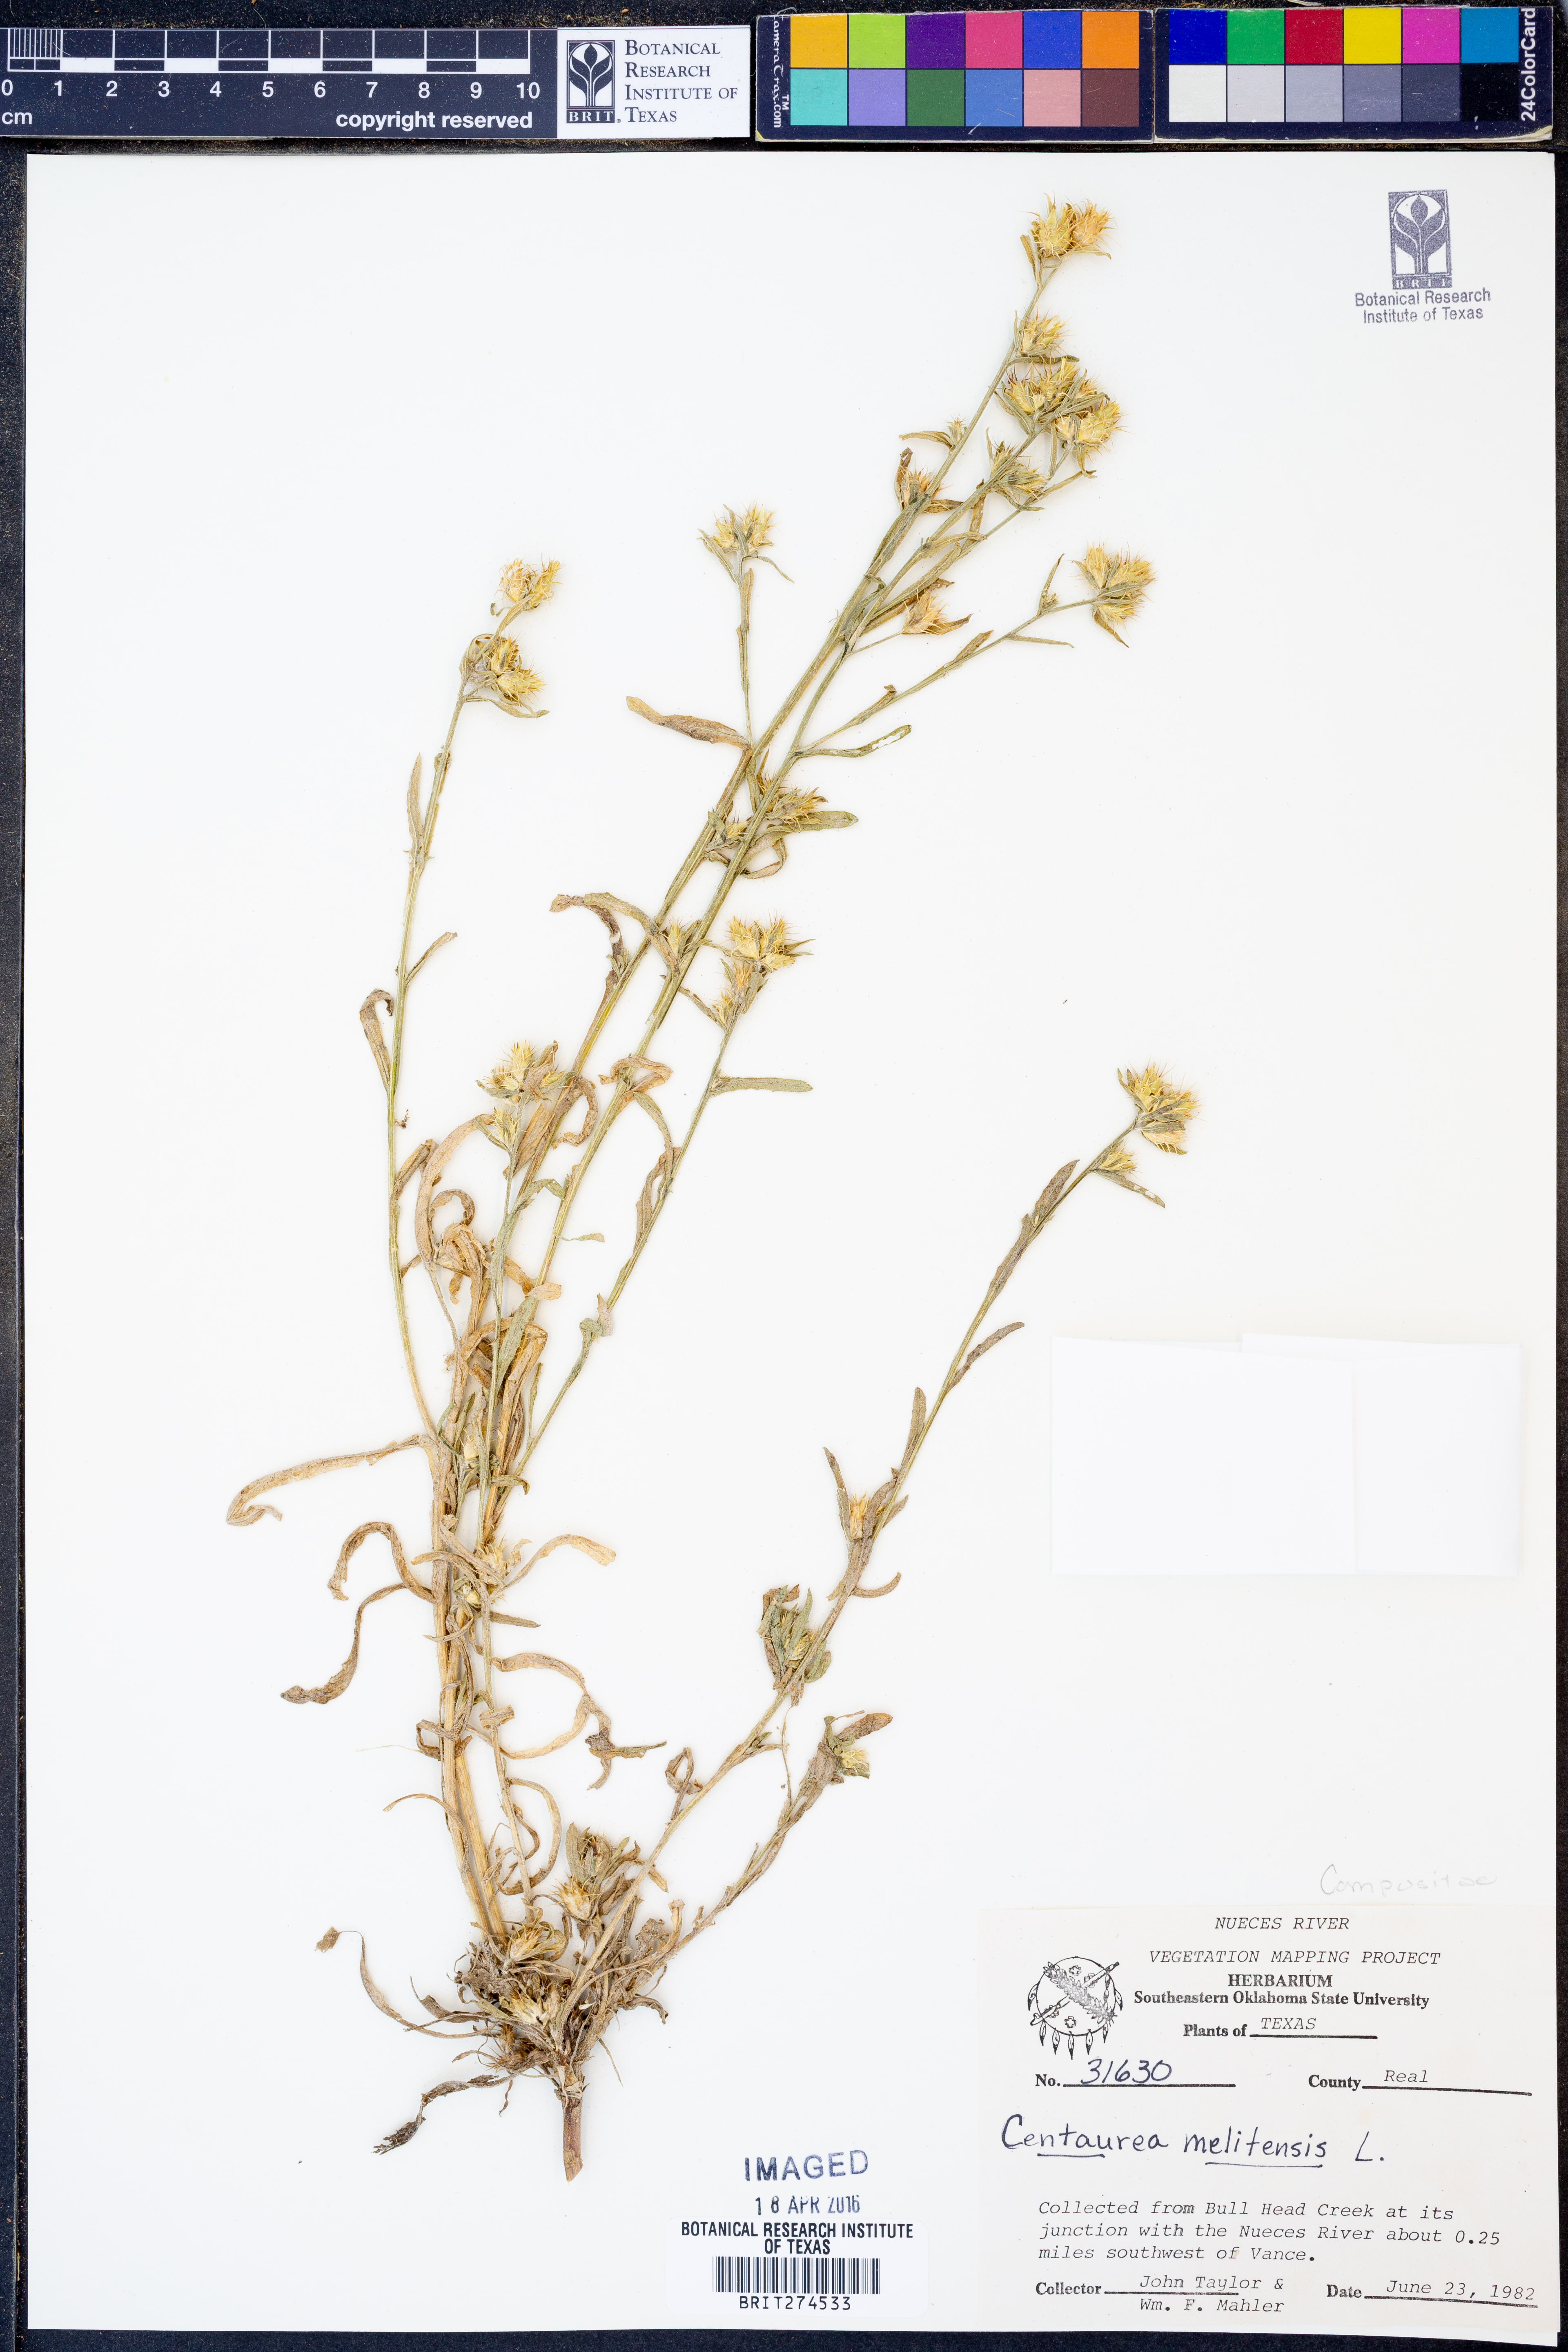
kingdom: Plantae
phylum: Tracheophyta
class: Magnoliopsida
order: Asterales
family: Asteraceae
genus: Centaurea
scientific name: Centaurea melitensis
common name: Maltese star-thistle
